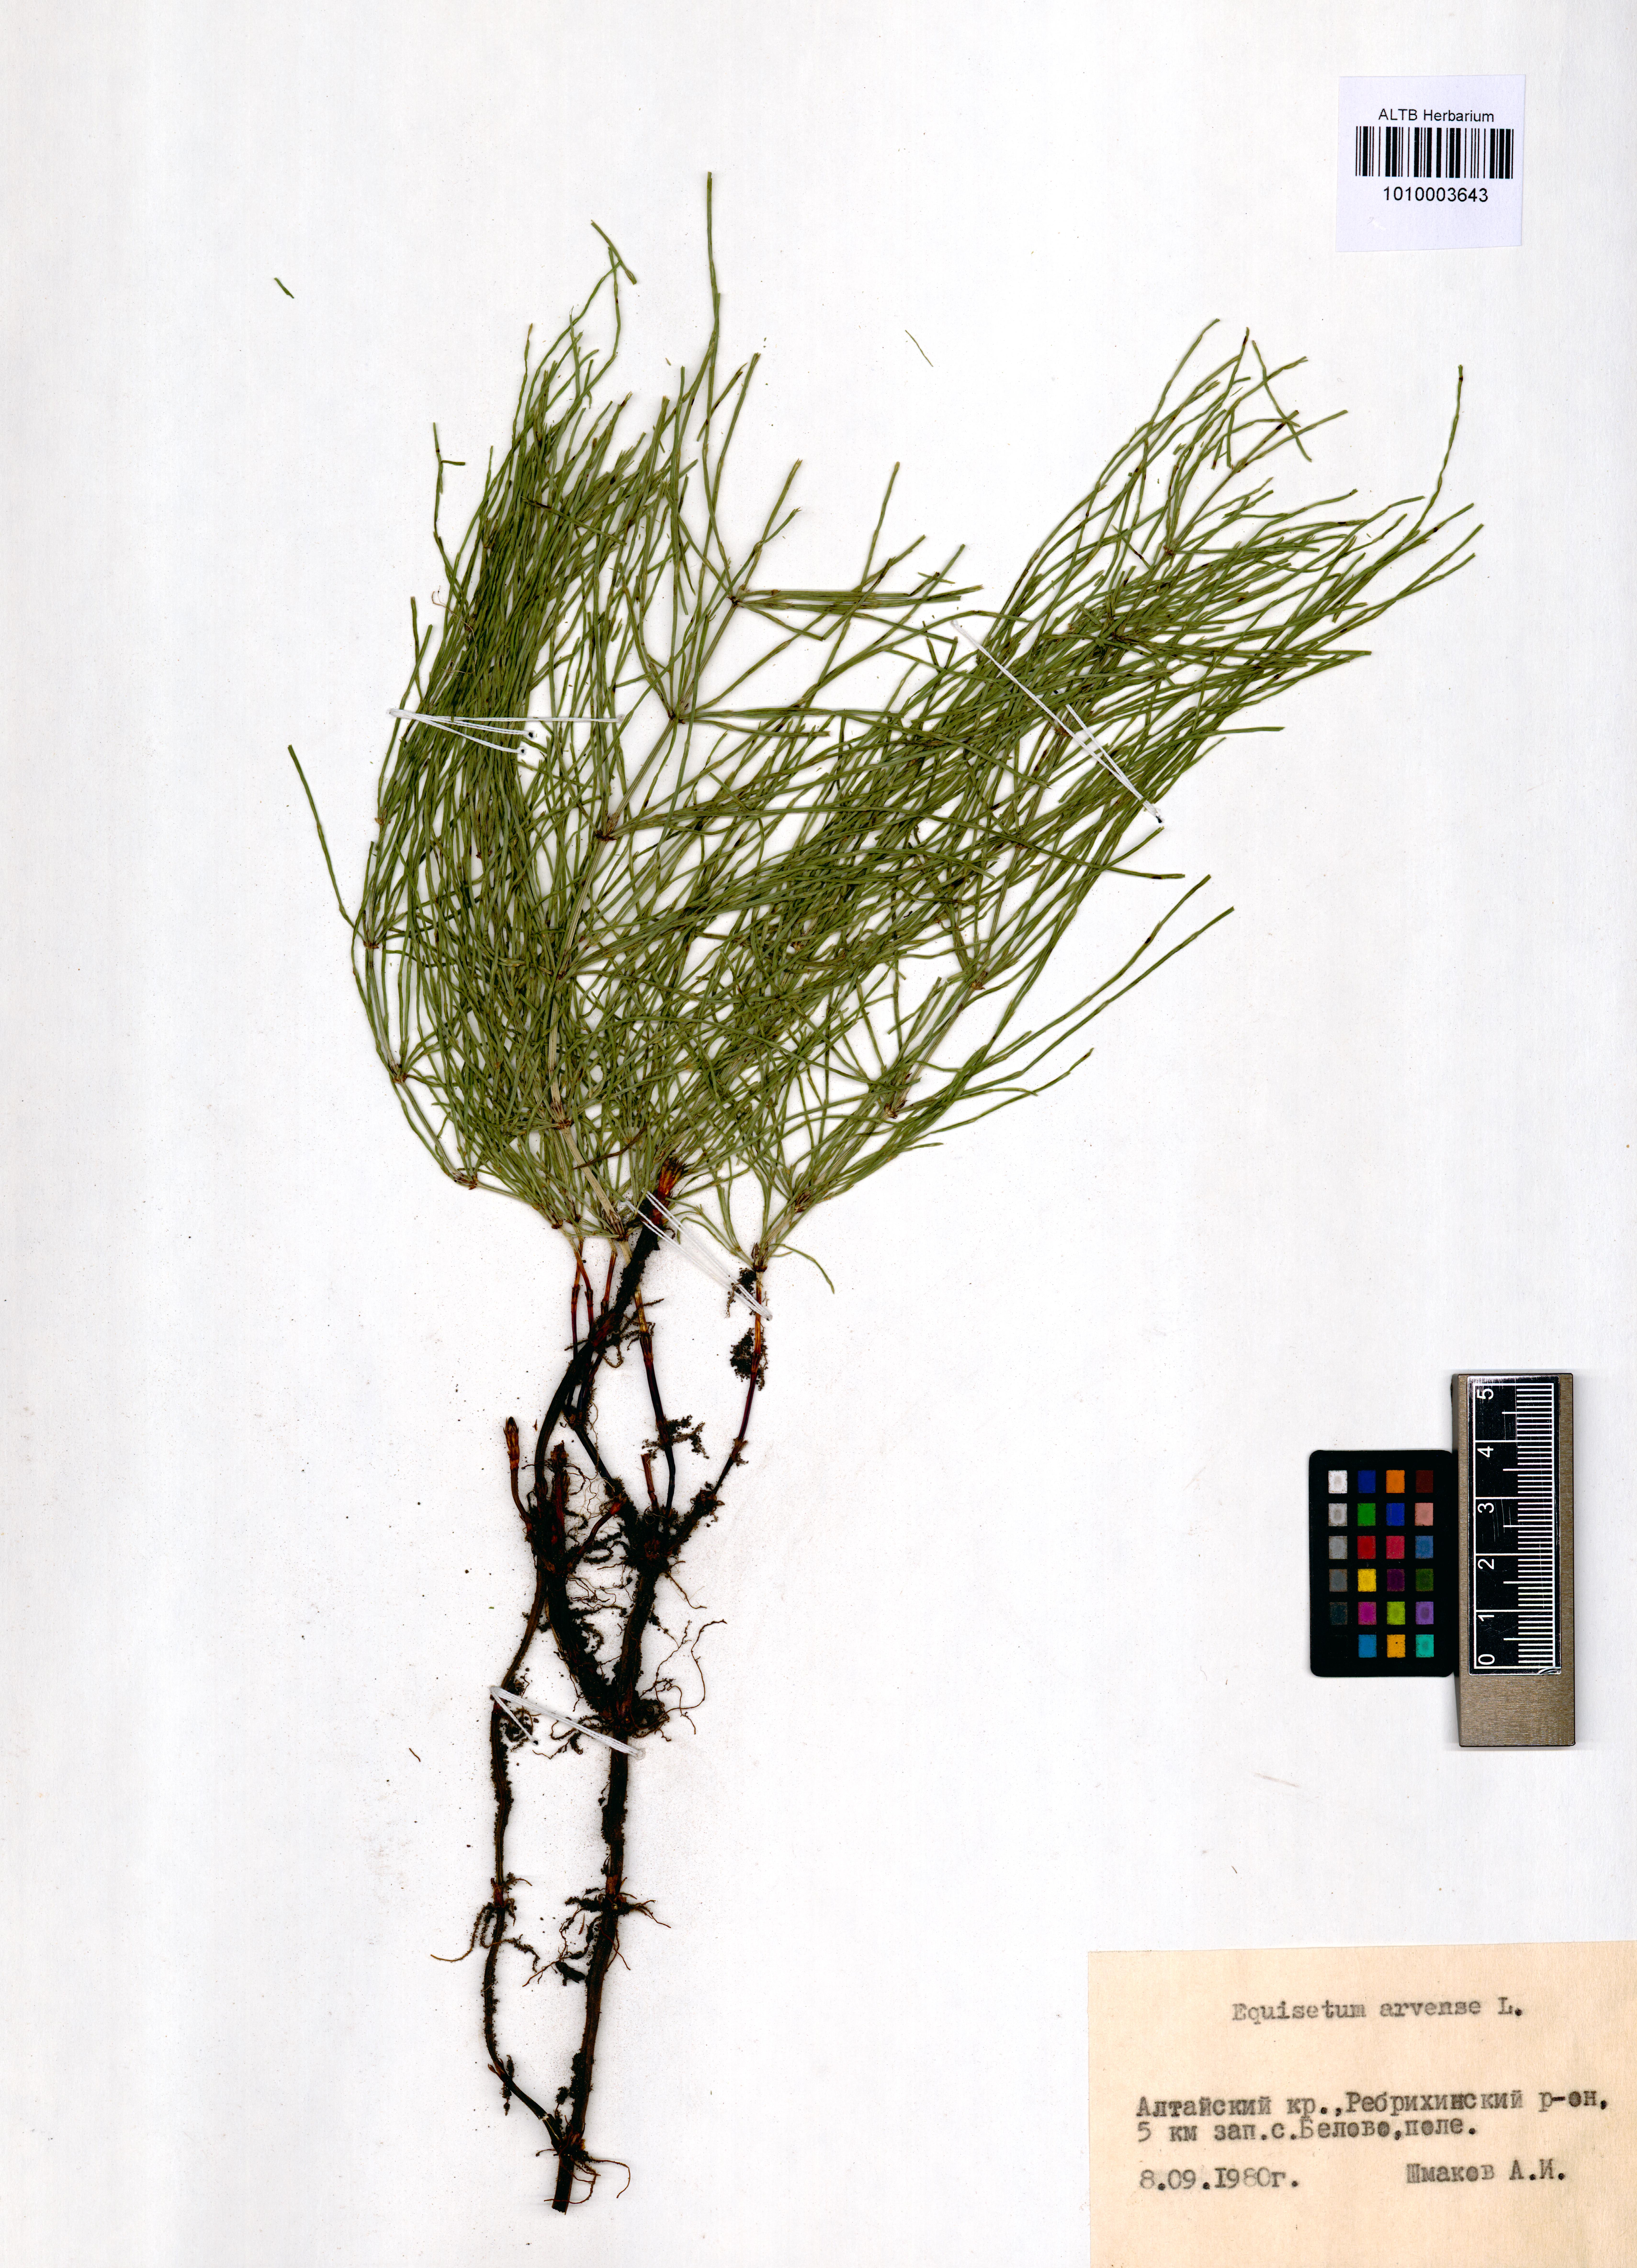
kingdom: Plantae
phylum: Tracheophyta
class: Polypodiopsida
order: Equisetales
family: Equisetaceae
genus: Equisetum
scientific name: Equisetum arvense
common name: Field horsetail
